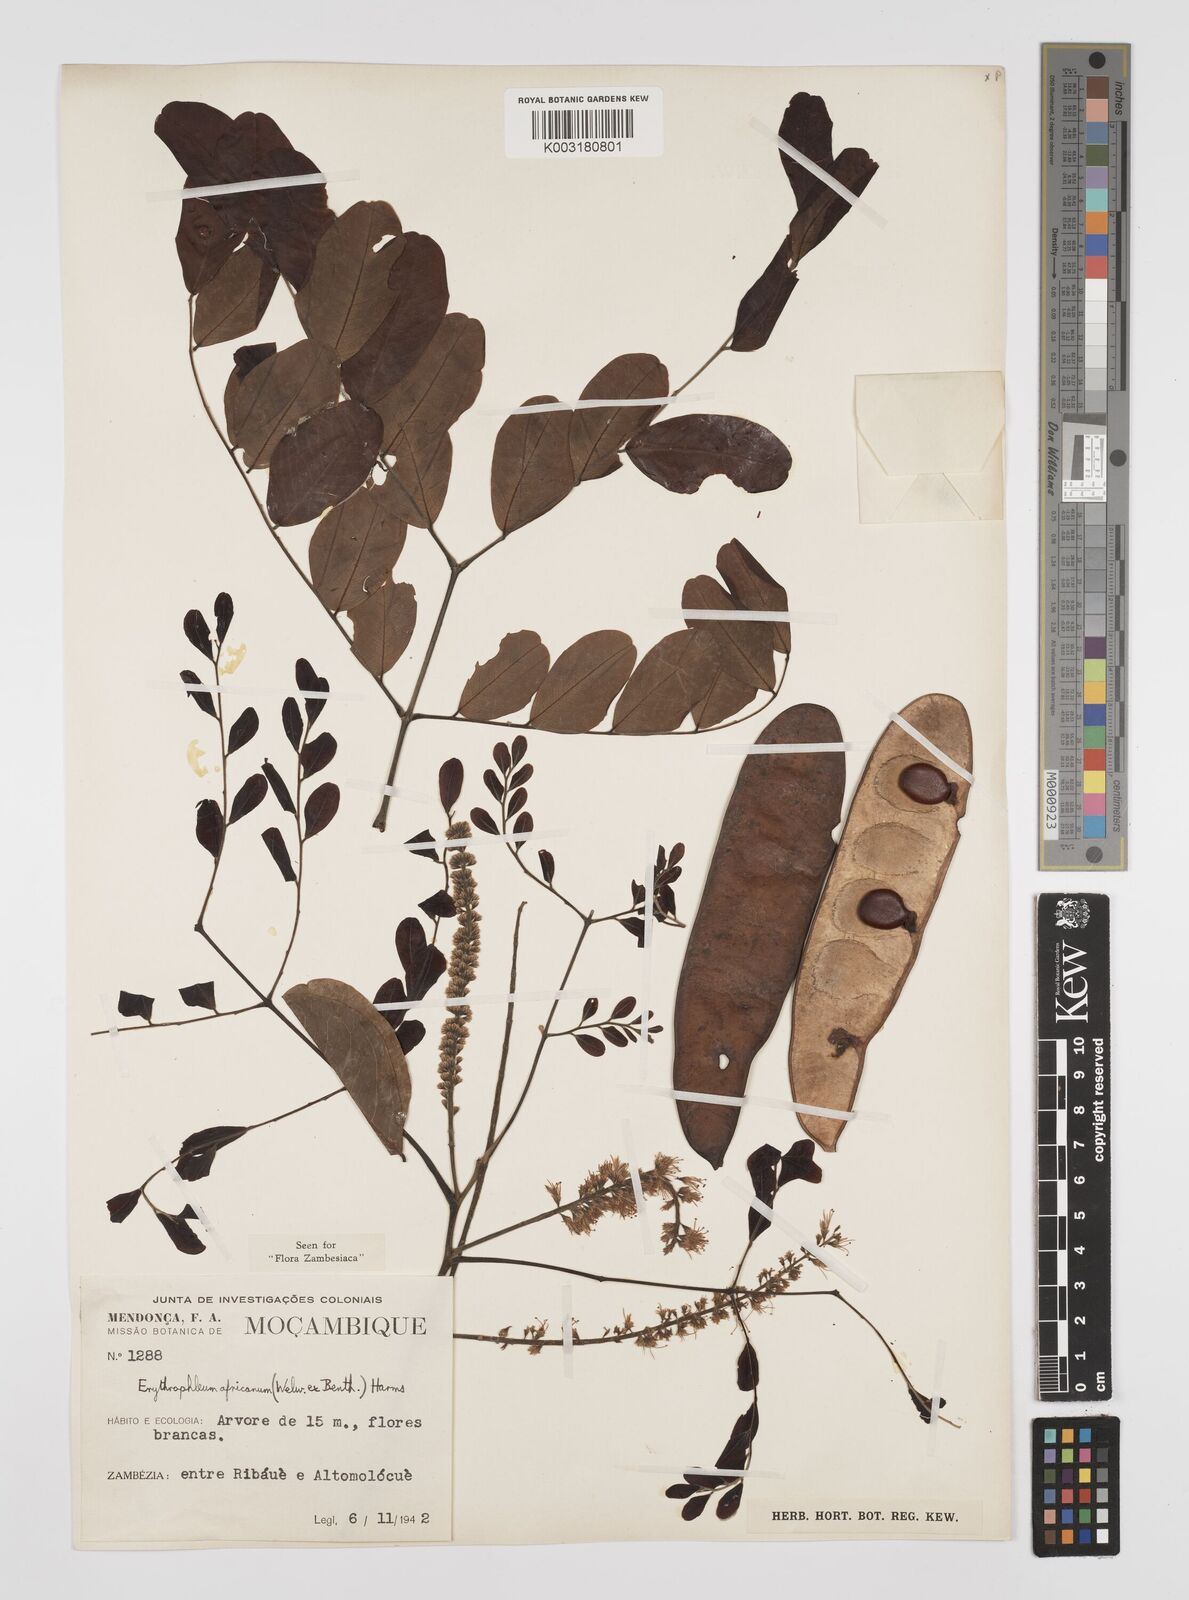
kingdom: Plantae
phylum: Tracheophyta
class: Magnoliopsida
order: Fabales
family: Fabaceae
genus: Peltophorum
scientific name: Peltophorum africanum
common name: African black wattle
